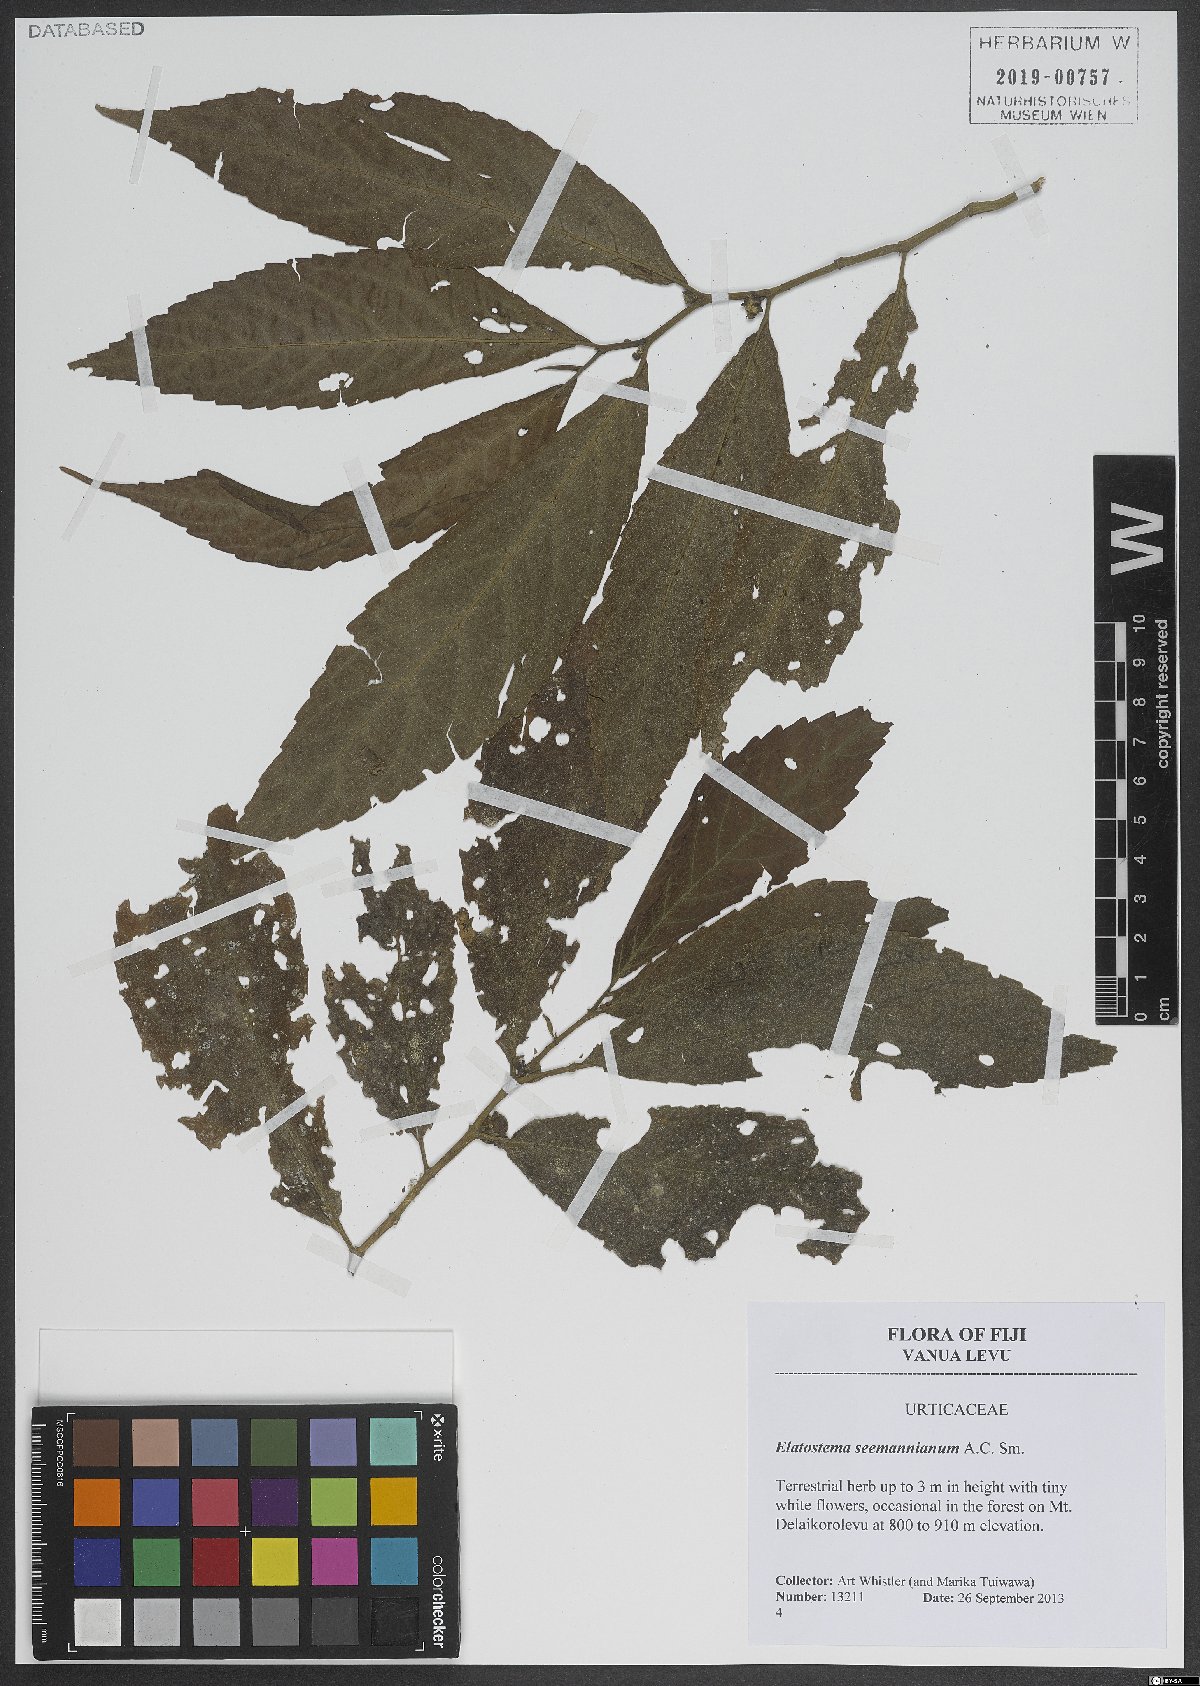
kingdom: Plantae
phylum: Tracheophyta
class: Magnoliopsida
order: Rosales
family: Urticaceae
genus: Elatostema
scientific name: Elatostema seemannianum
